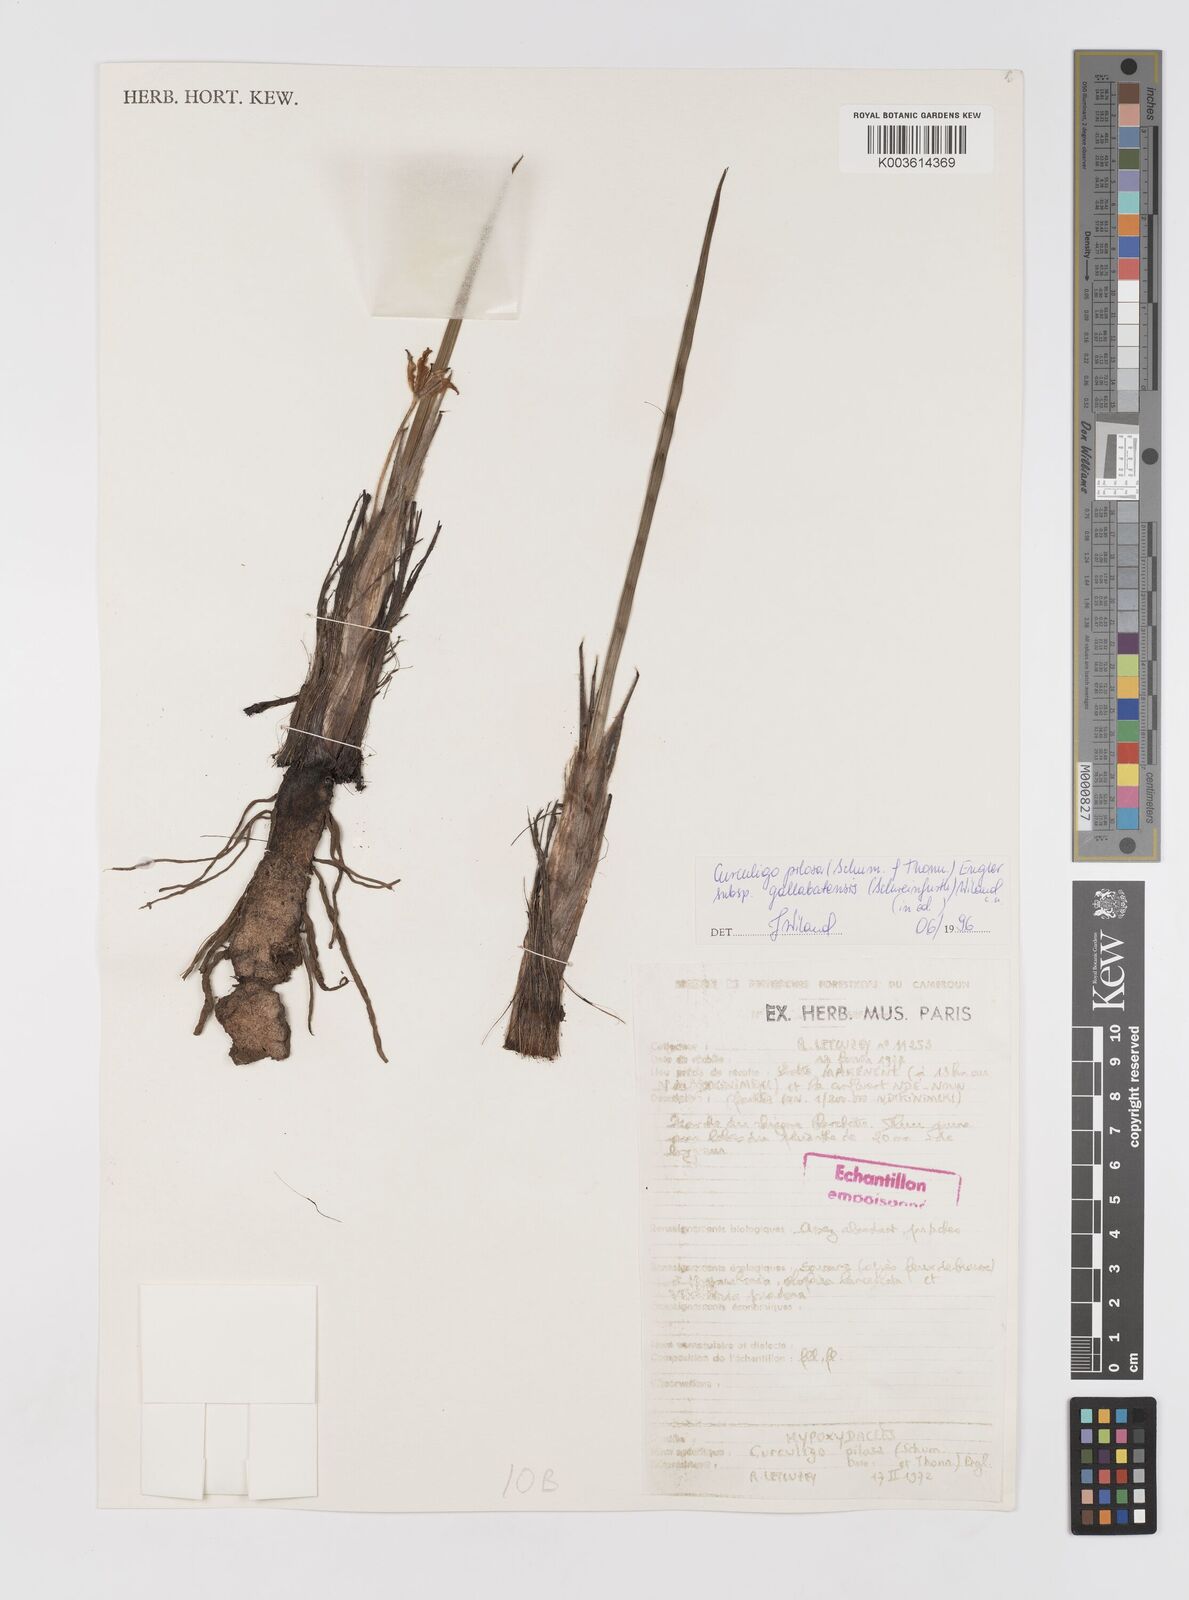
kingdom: Plantae
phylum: Tracheophyta
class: Liliopsida
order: Asparagales
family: Hypoxidaceae
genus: Curculigo
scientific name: Curculigo pilosa
